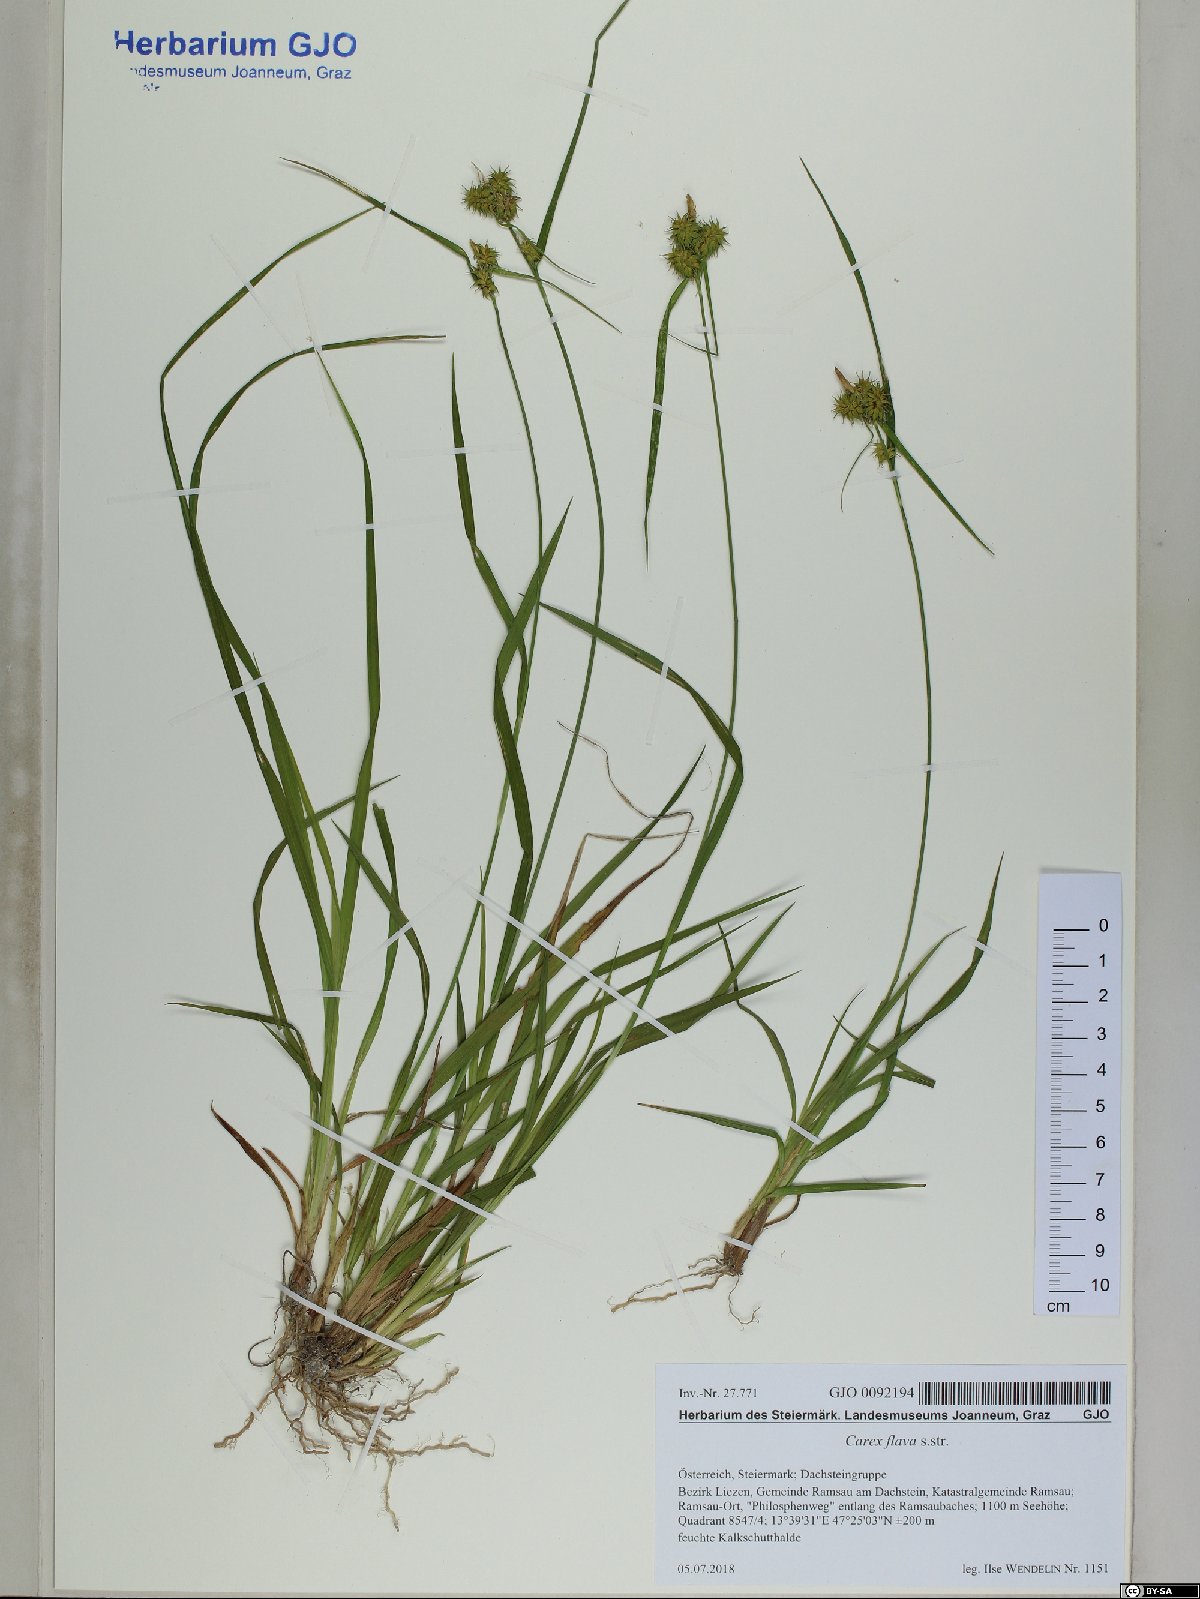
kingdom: Plantae
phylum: Tracheophyta
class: Liliopsida
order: Poales
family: Cyperaceae
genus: Carex
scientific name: Carex flava
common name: Large yellow-sedge
